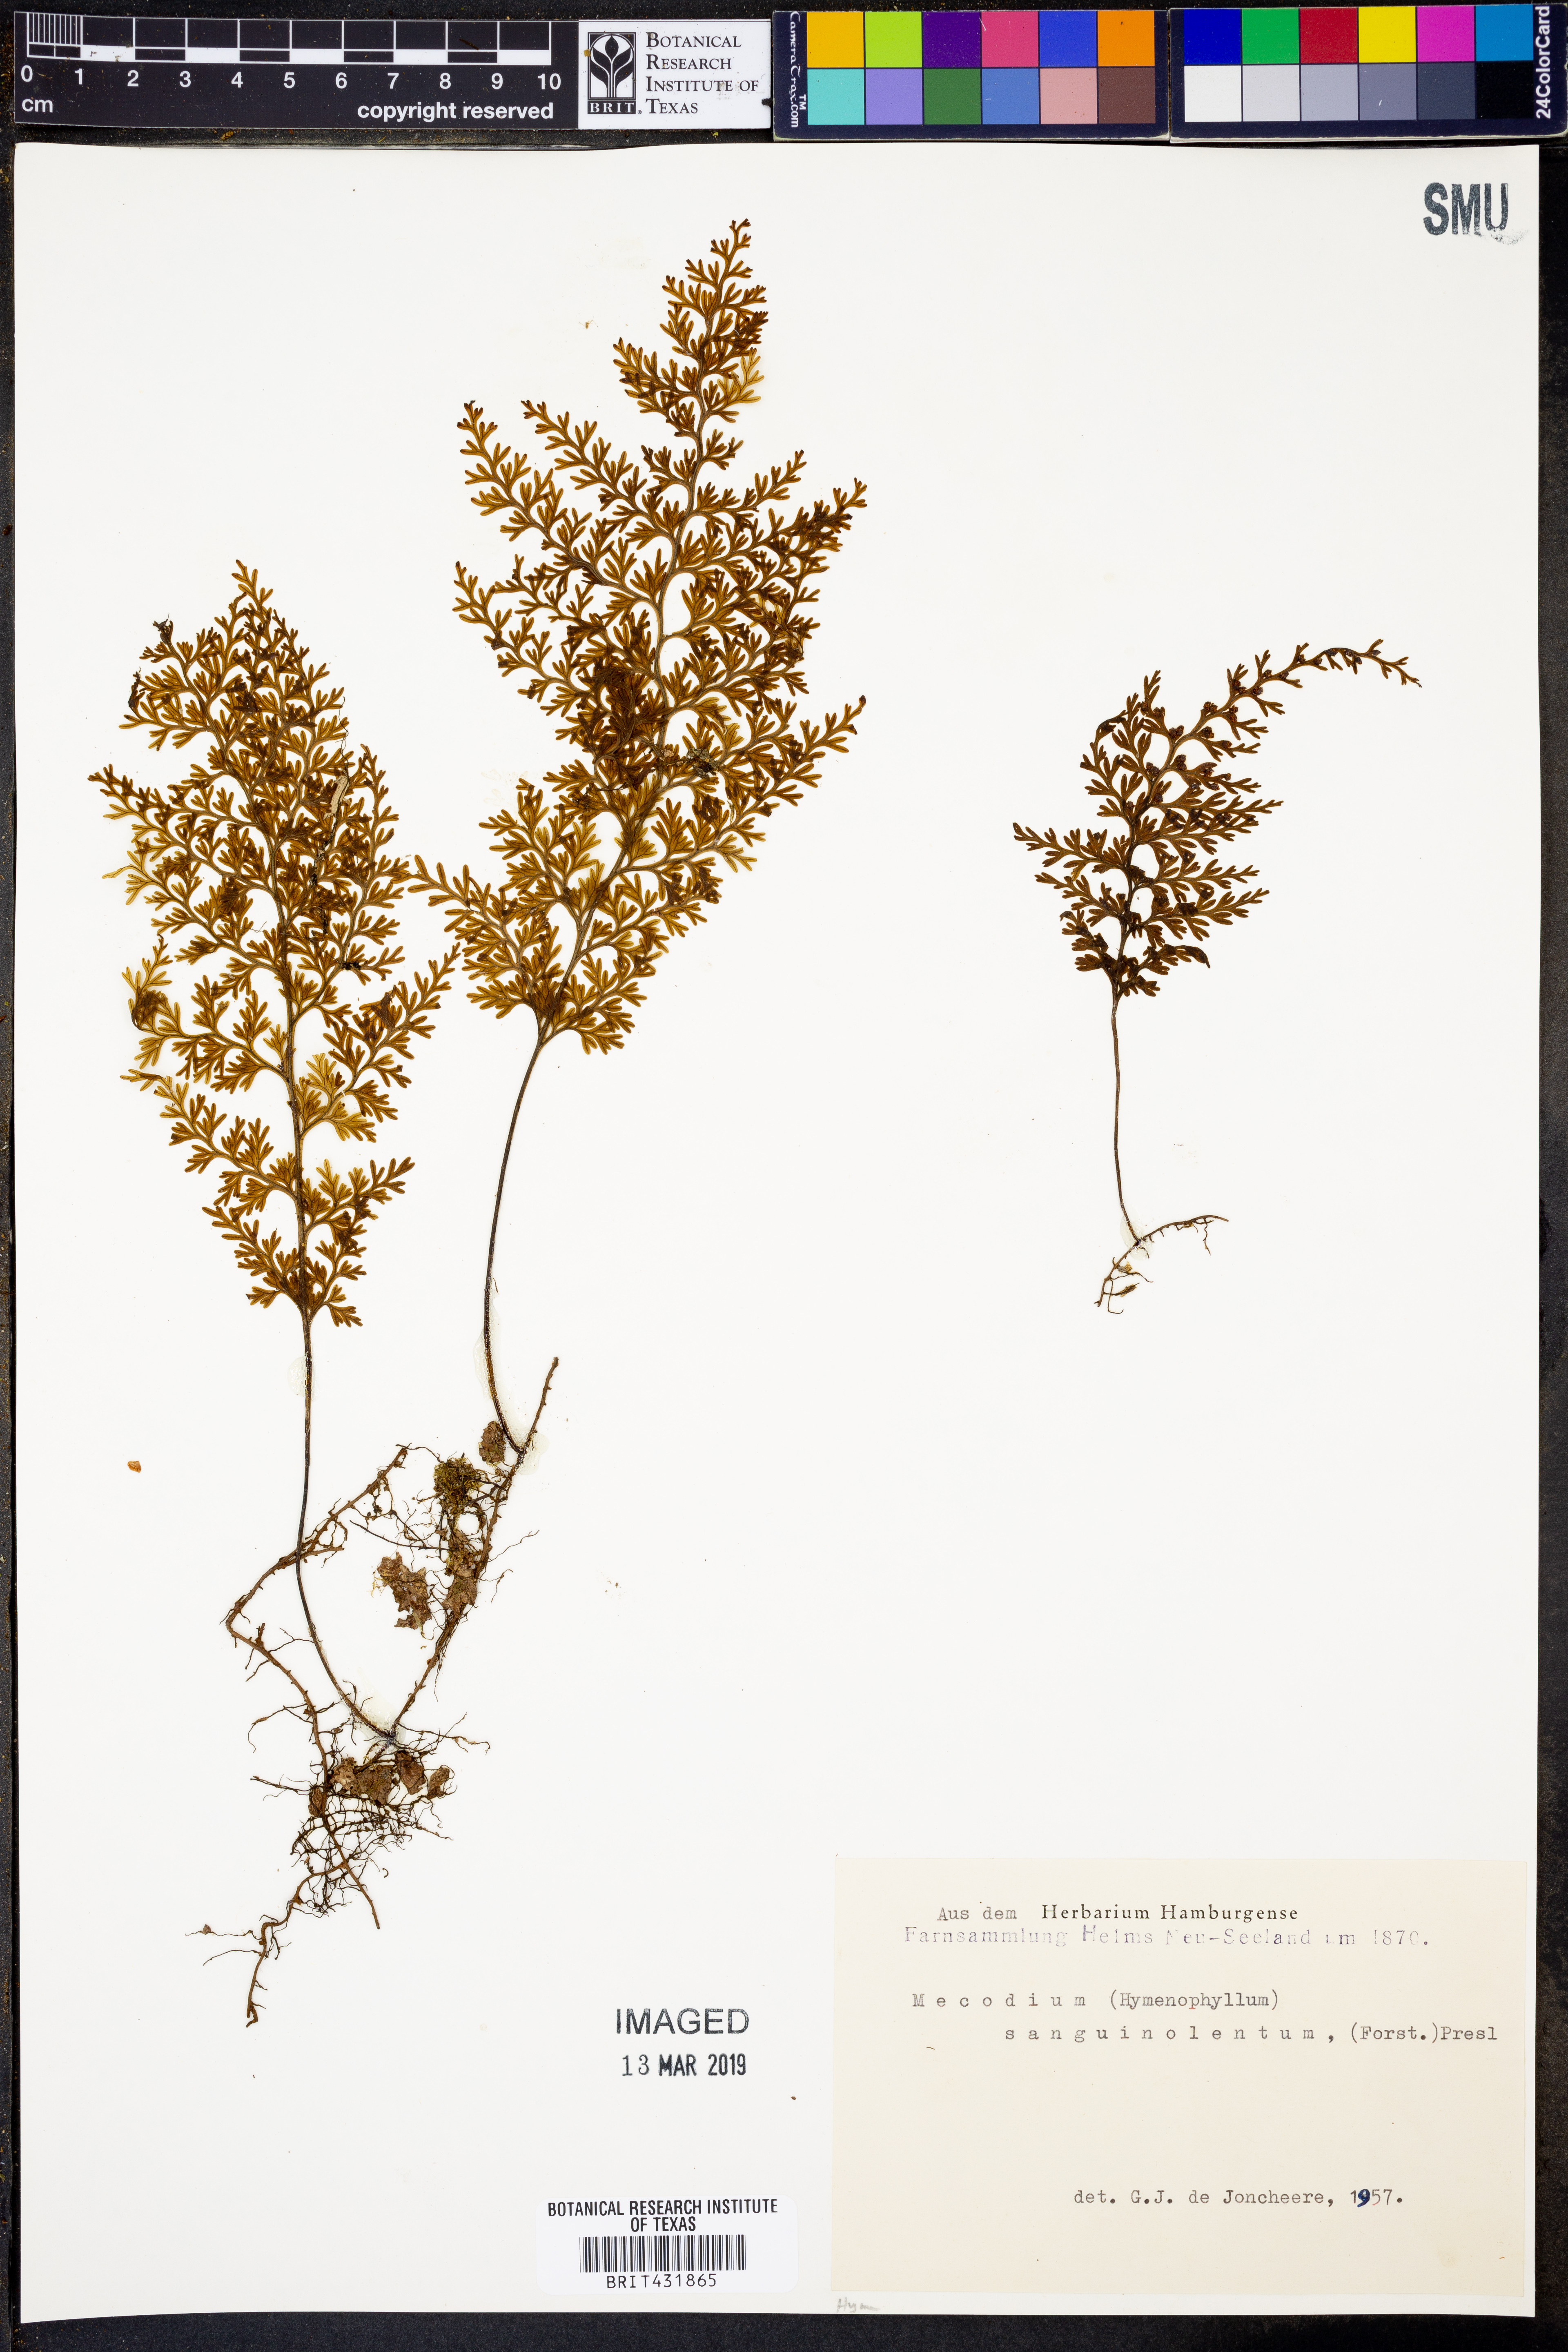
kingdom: Plantae
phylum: Tracheophyta
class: Polypodiopsida
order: Hymenophyllales
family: Hymenophyllaceae
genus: Hymenophyllum
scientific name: Hymenophyllum sanguinolentum
